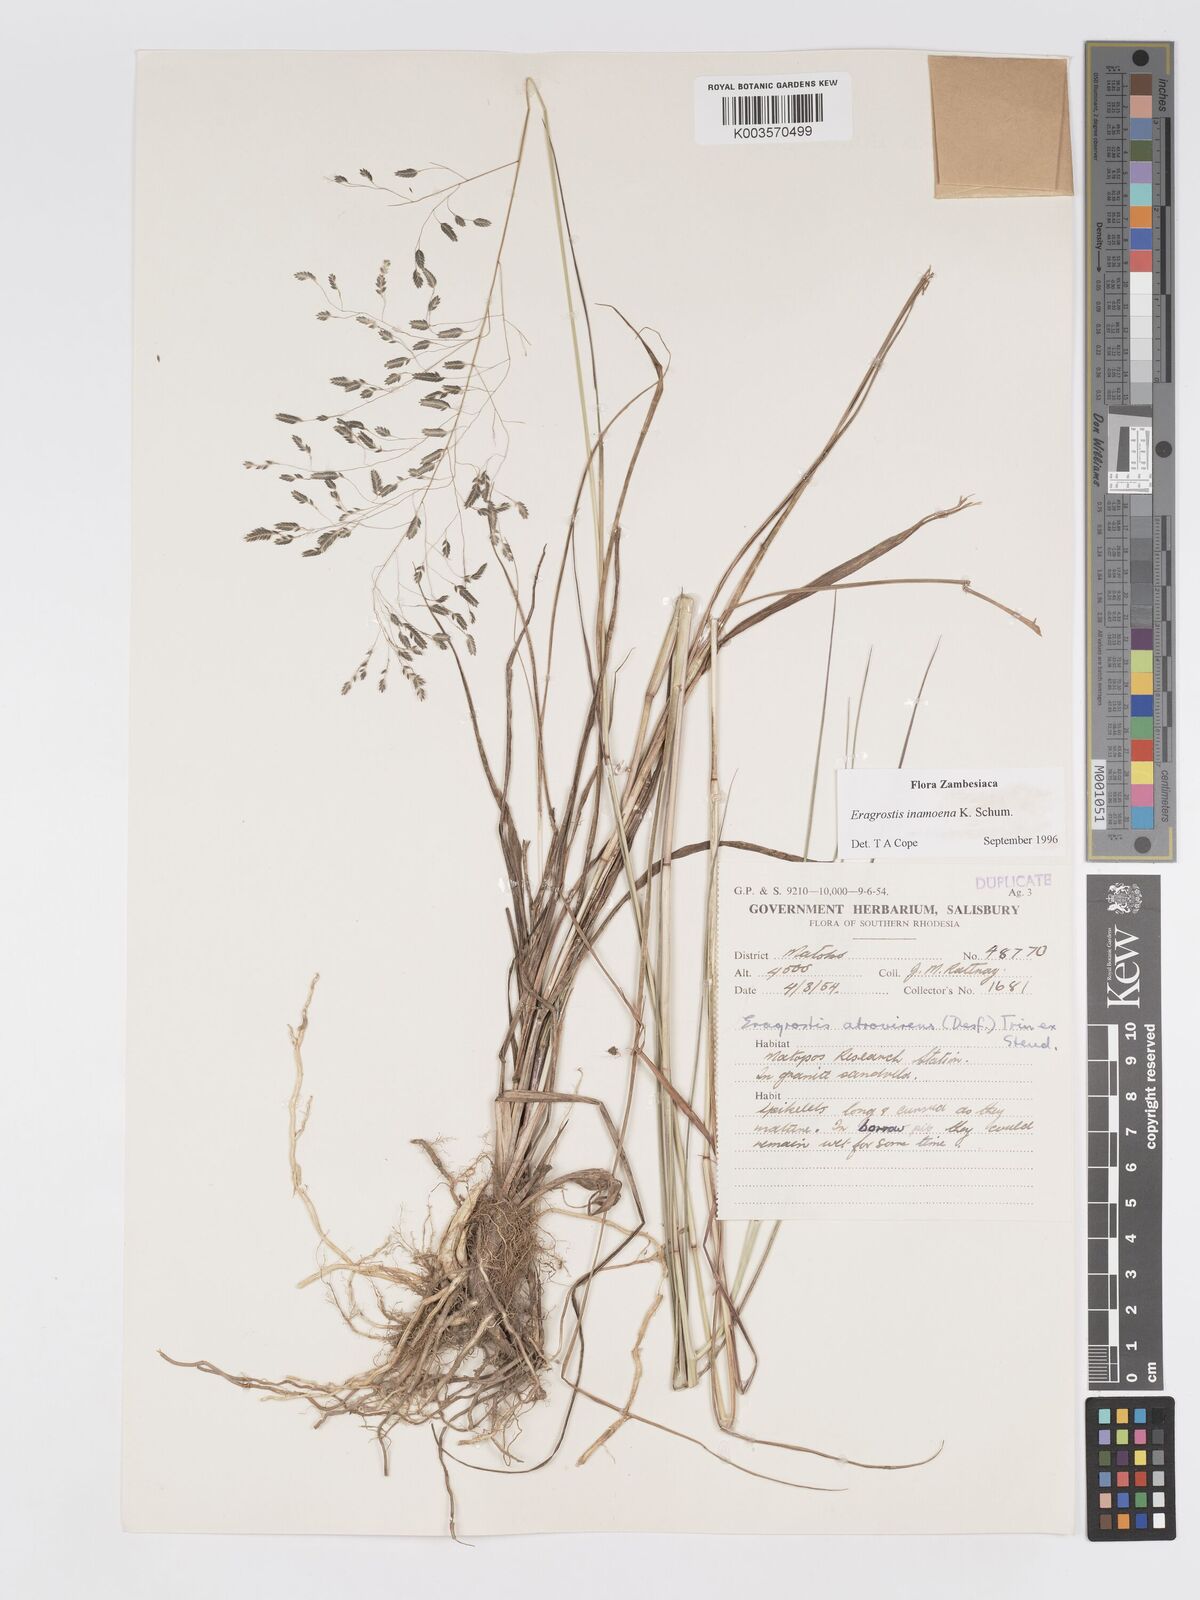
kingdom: Plantae
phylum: Tracheophyta
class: Liliopsida
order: Poales
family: Poaceae
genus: Eragrostis
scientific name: Eragrostis inamoena
